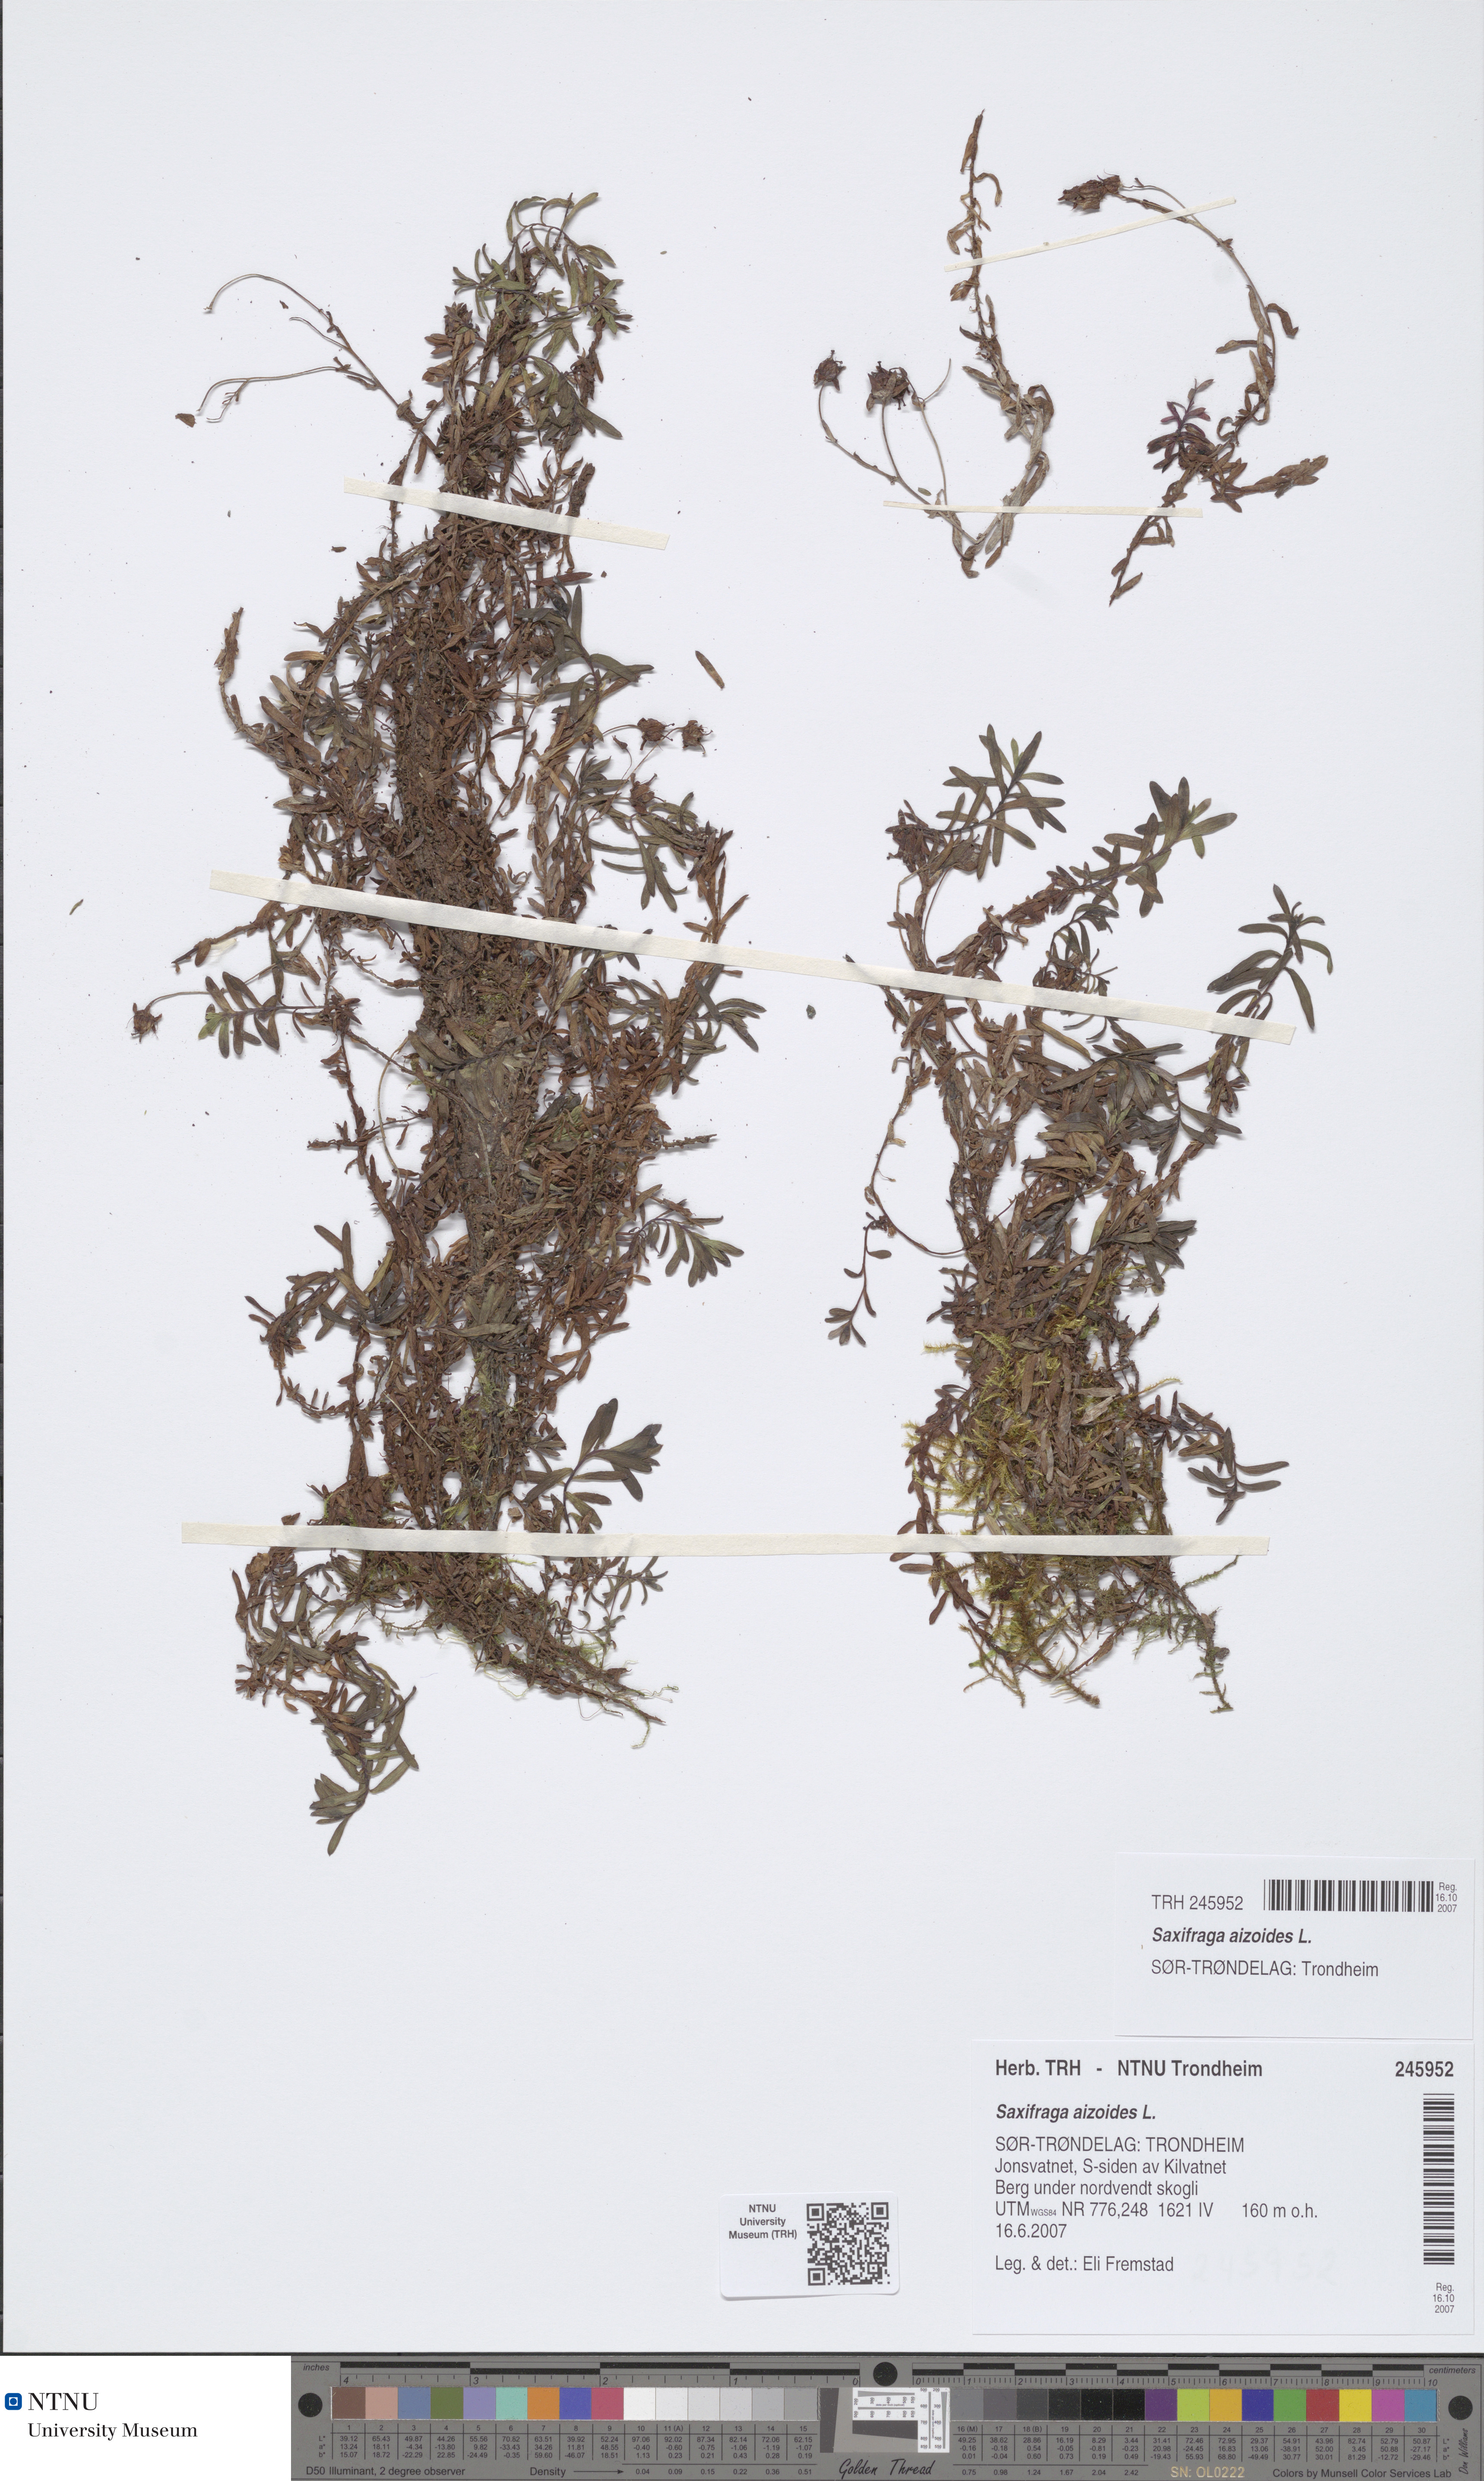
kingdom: Plantae
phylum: Tracheophyta
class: Magnoliopsida
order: Saxifragales
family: Saxifragaceae
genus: Saxifraga
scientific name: Saxifraga aizoides
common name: Yellow mountain saxifrage
